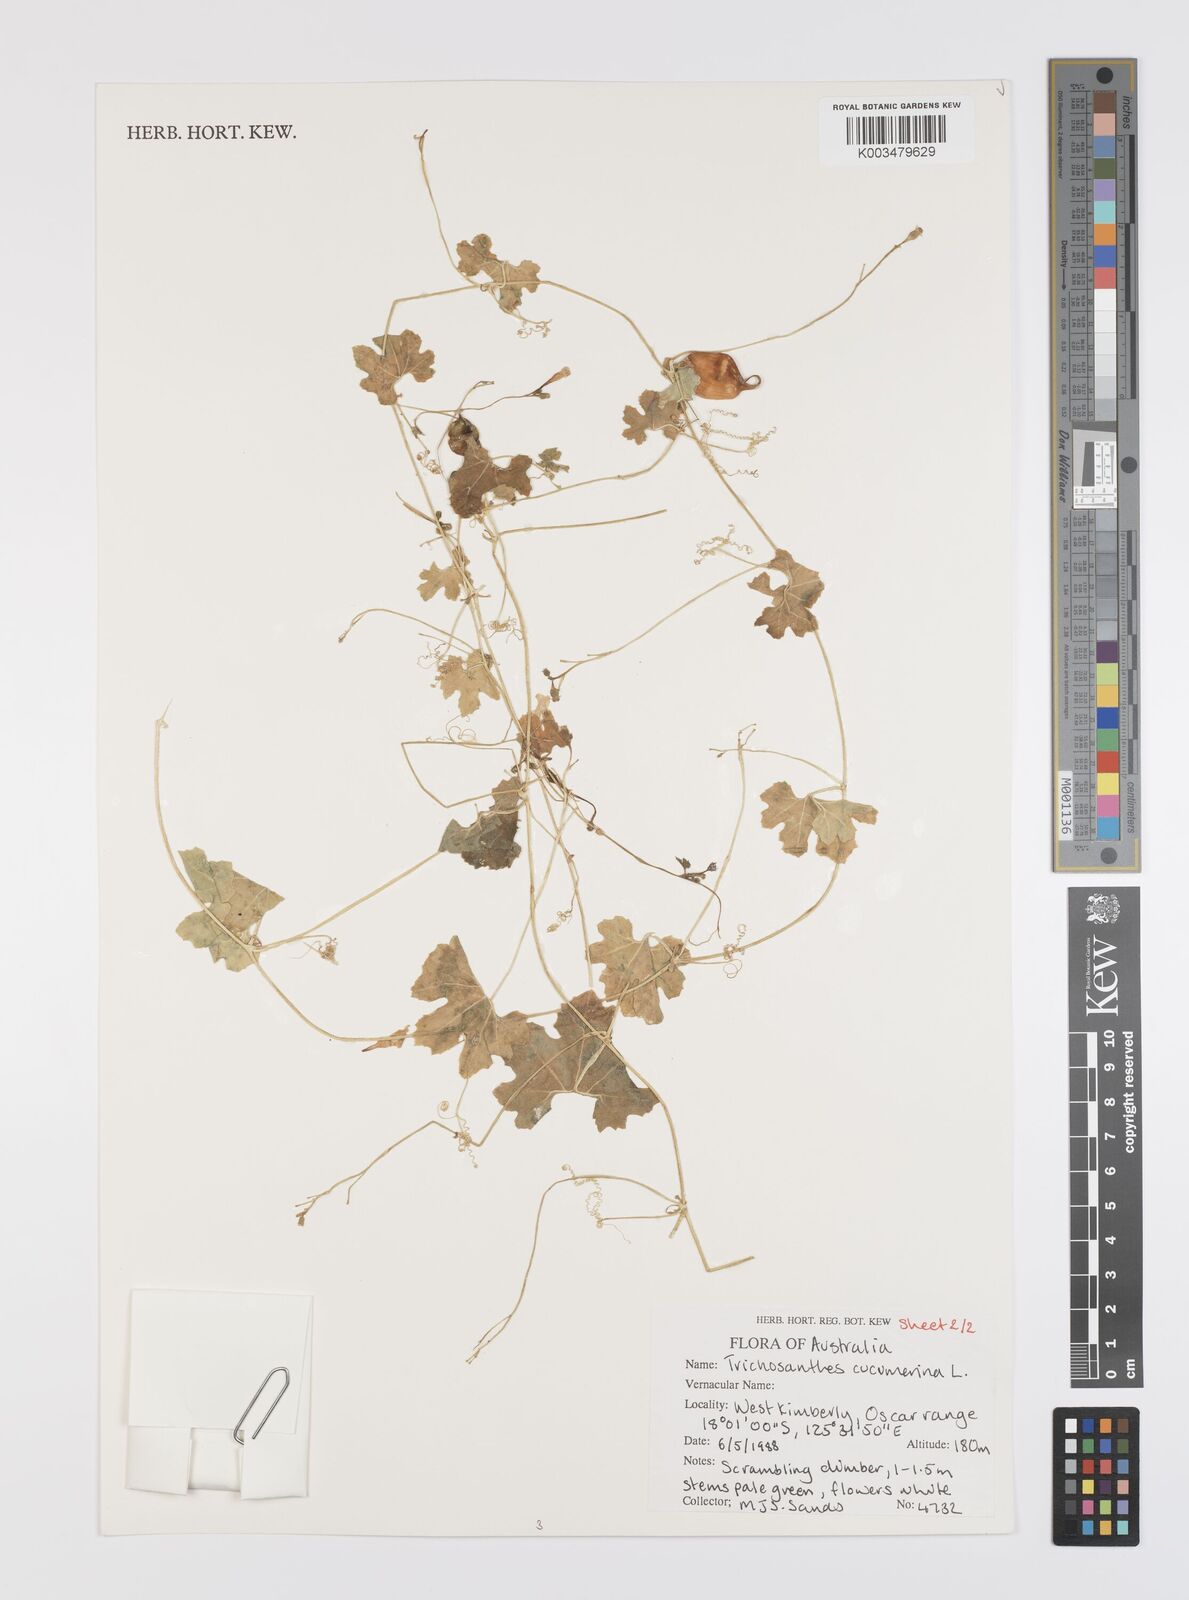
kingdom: Plantae
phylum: Tracheophyta
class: Magnoliopsida
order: Cucurbitales
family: Cucurbitaceae
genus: Trichosanthes
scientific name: Trichosanthes cucumerina
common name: Snakegourd
